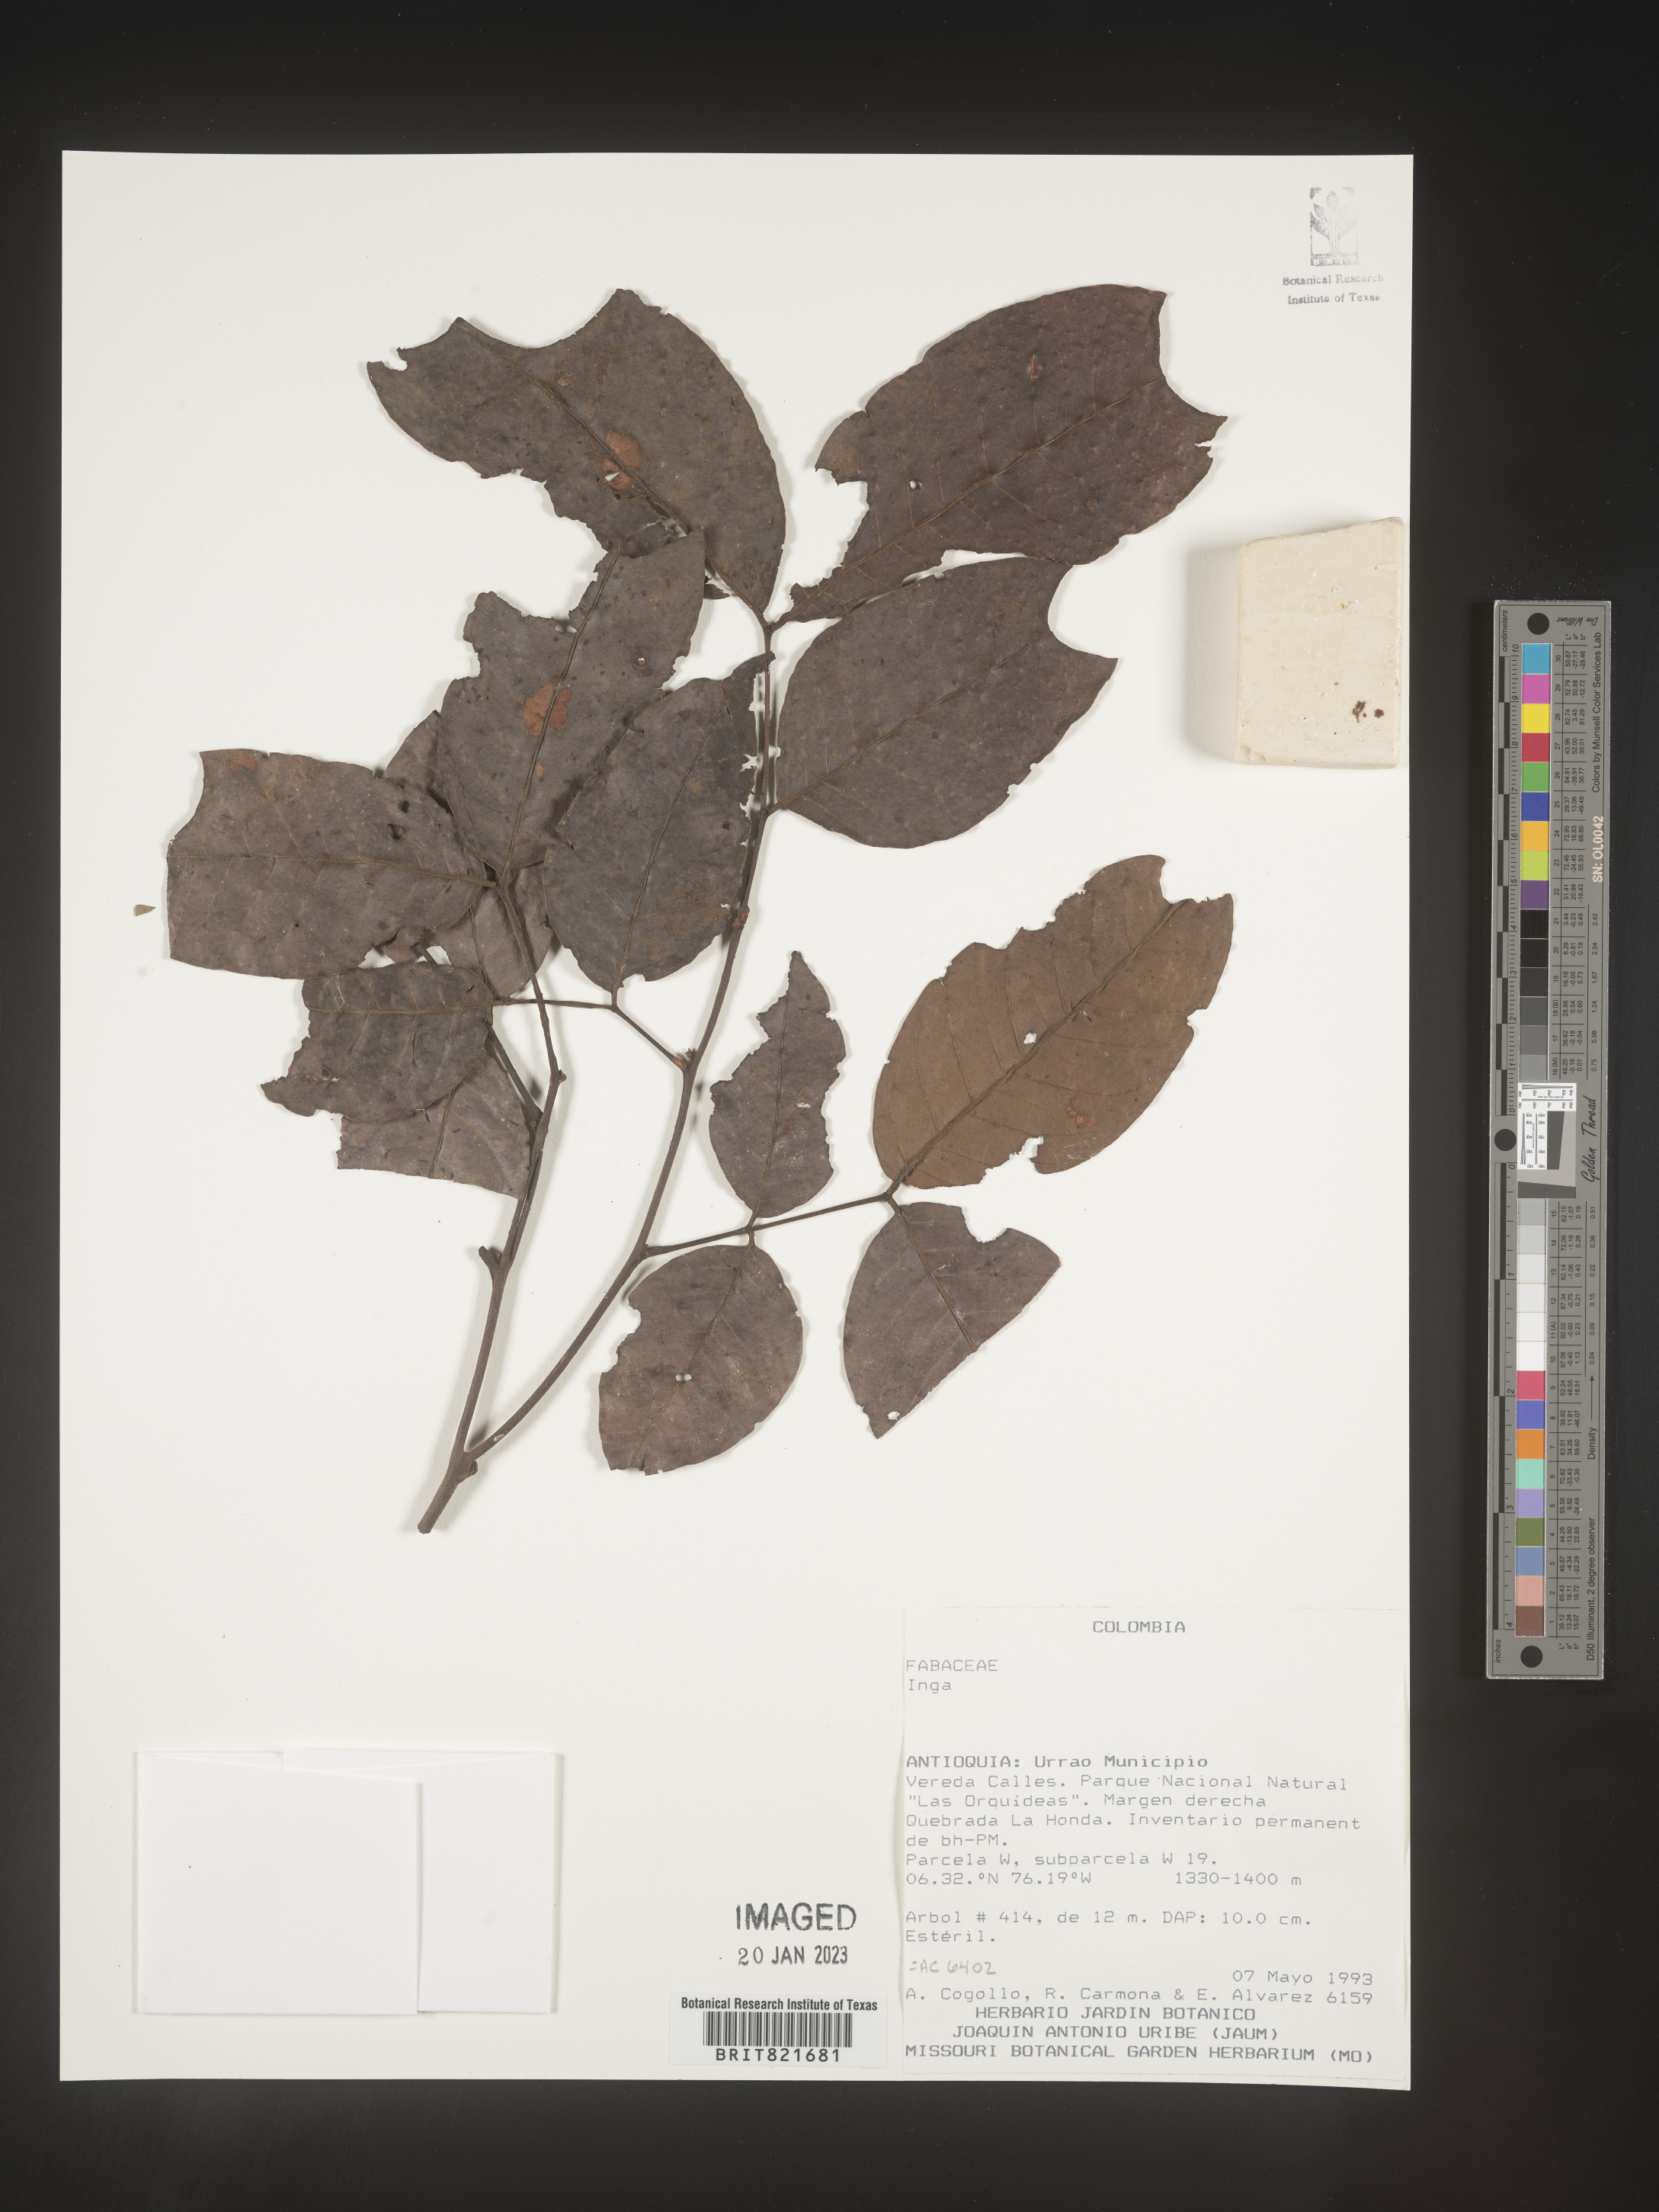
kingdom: Plantae
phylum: Tracheophyta
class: Magnoliopsida
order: Fabales
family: Fabaceae
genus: Inga
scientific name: Inga
